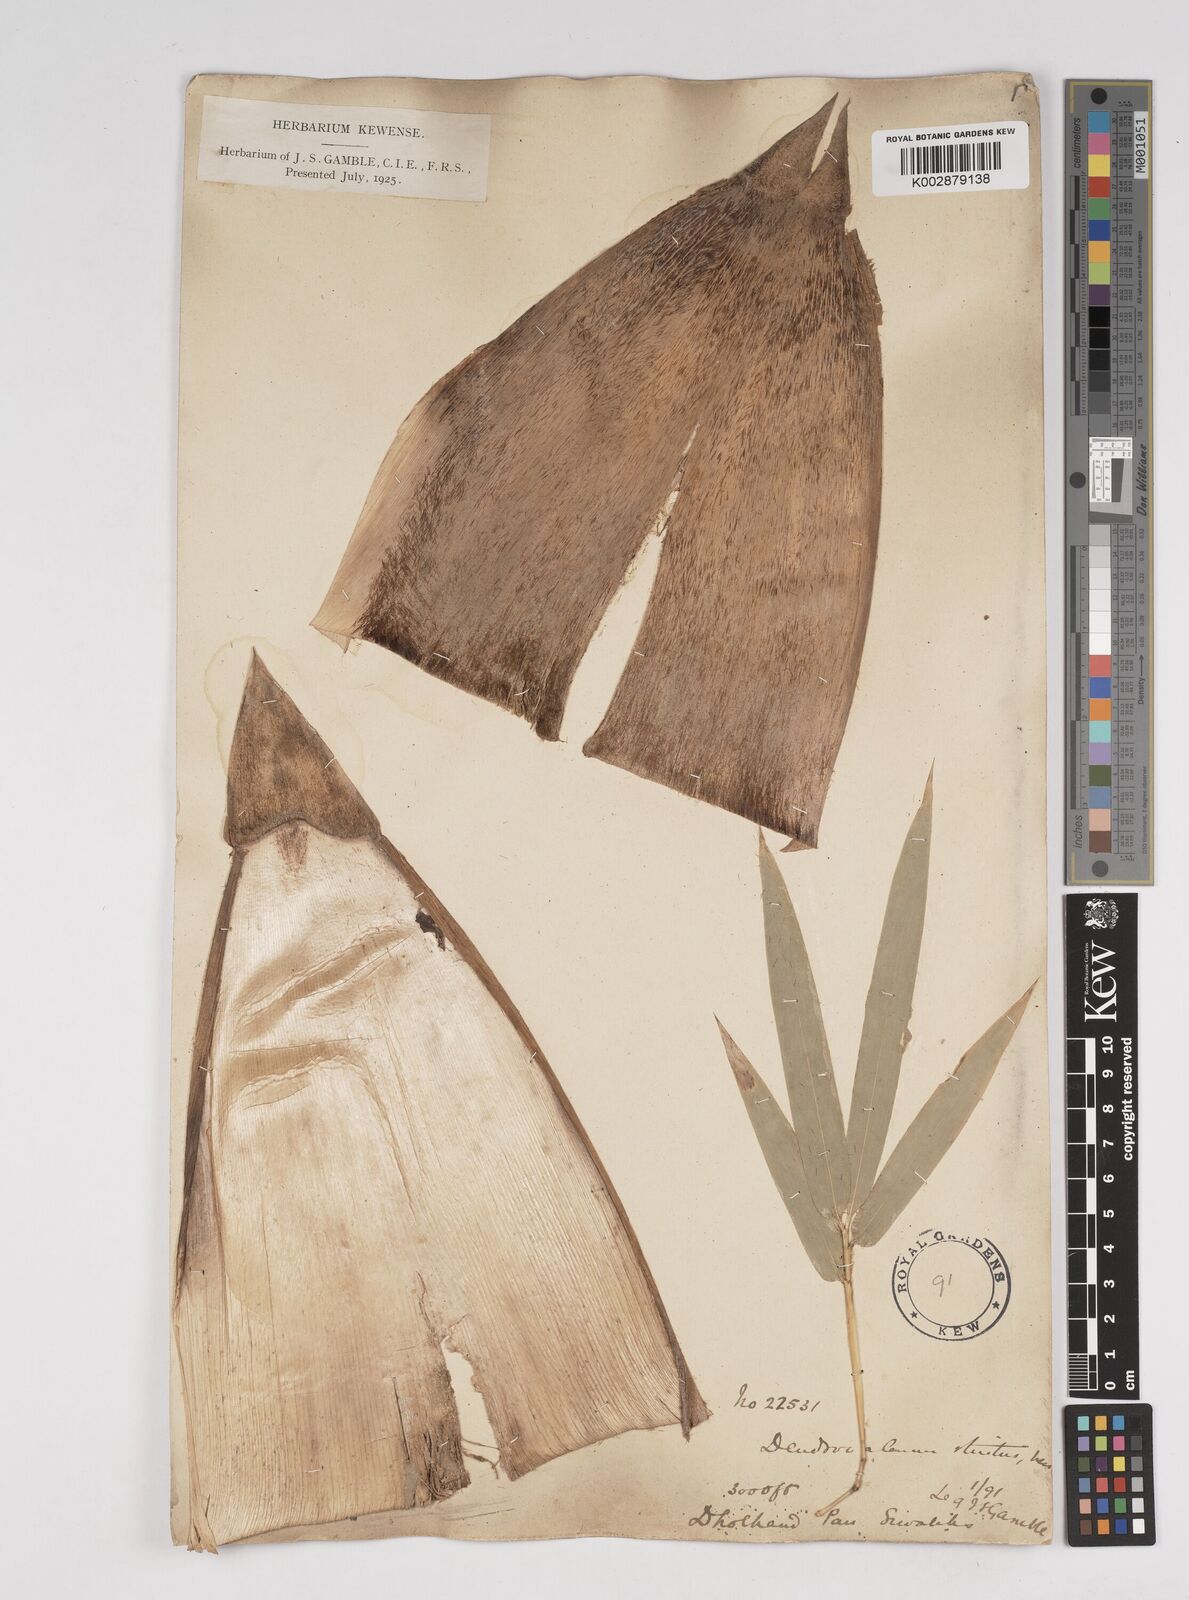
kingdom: Plantae
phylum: Tracheophyta
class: Liliopsida
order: Poales
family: Poaceae
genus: Dendrocalamus
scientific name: Dendrocalamus strictus
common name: Male bamboo
